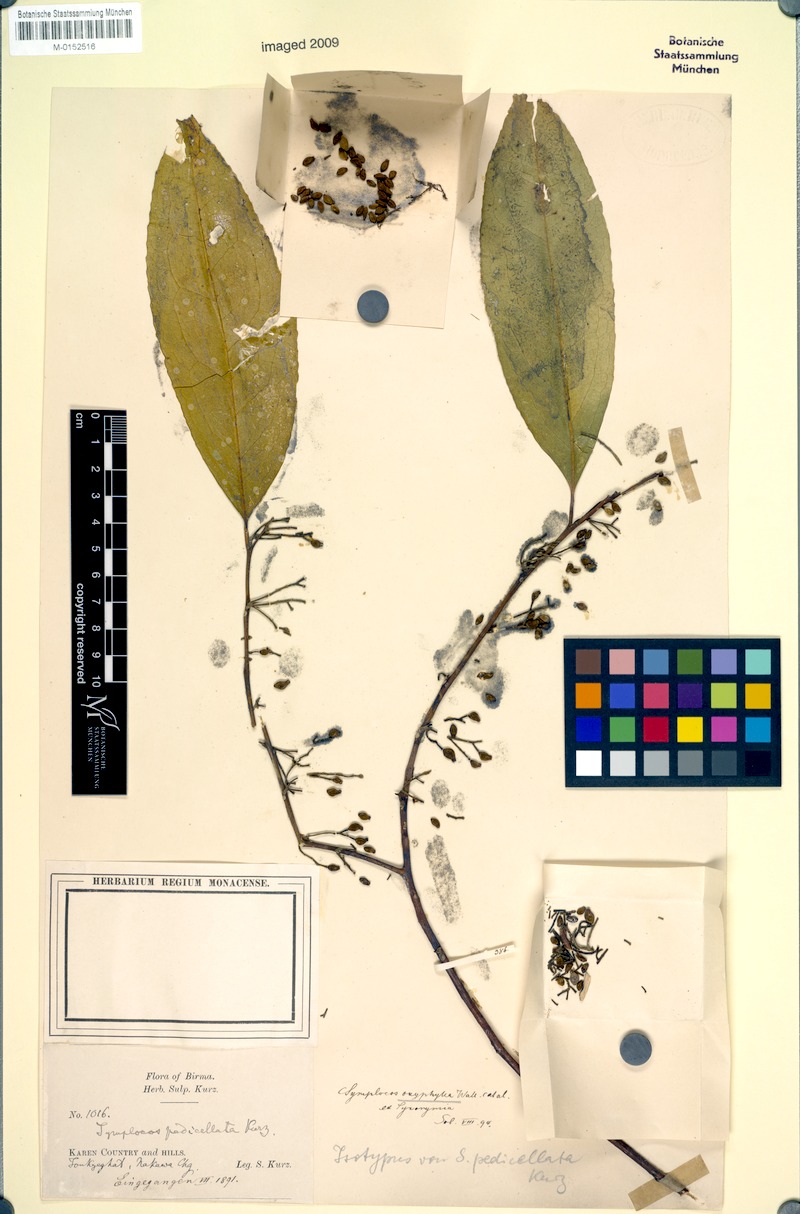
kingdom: Plantae
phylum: Tracheophyta
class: Magnoliopsida
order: Ericales
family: Symplocaceae
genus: Symplocos
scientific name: Symplocos oxyphylla
